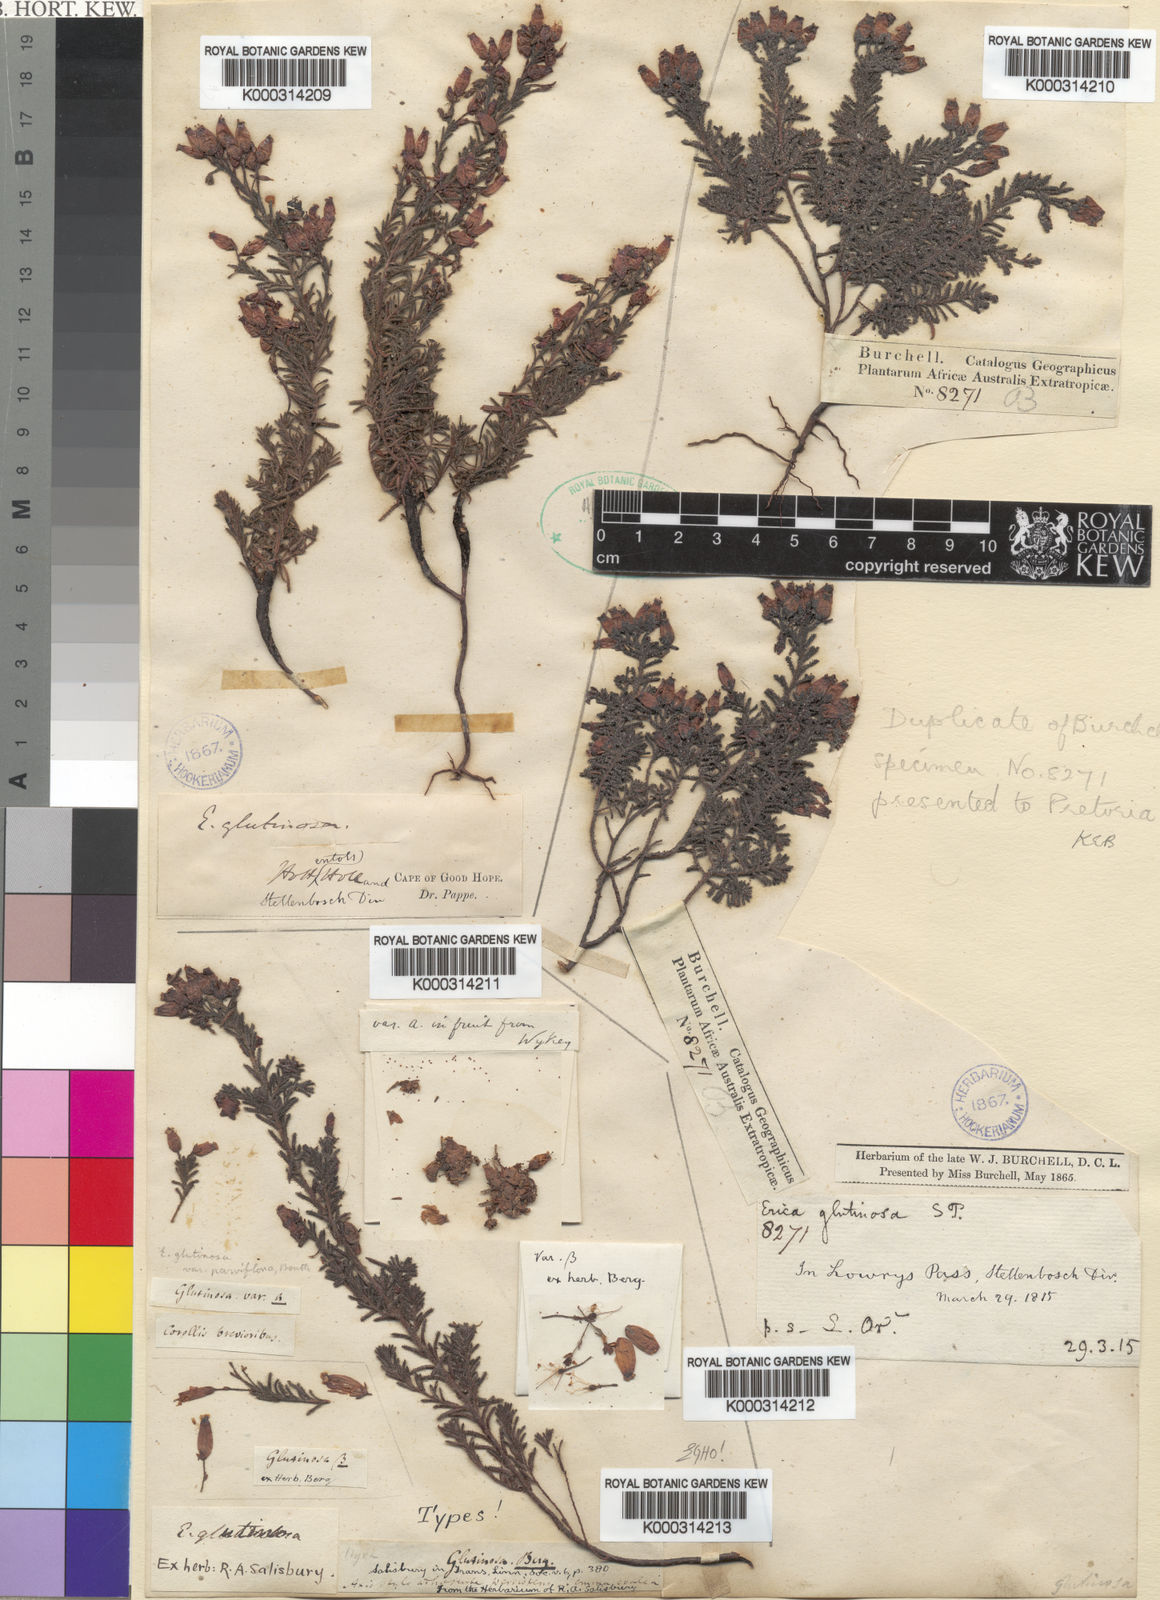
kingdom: Plantae
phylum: Tracheophyta
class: Magnoliopsida
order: Ericales
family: Ericaceae
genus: Erica
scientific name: Erica glutinosa
